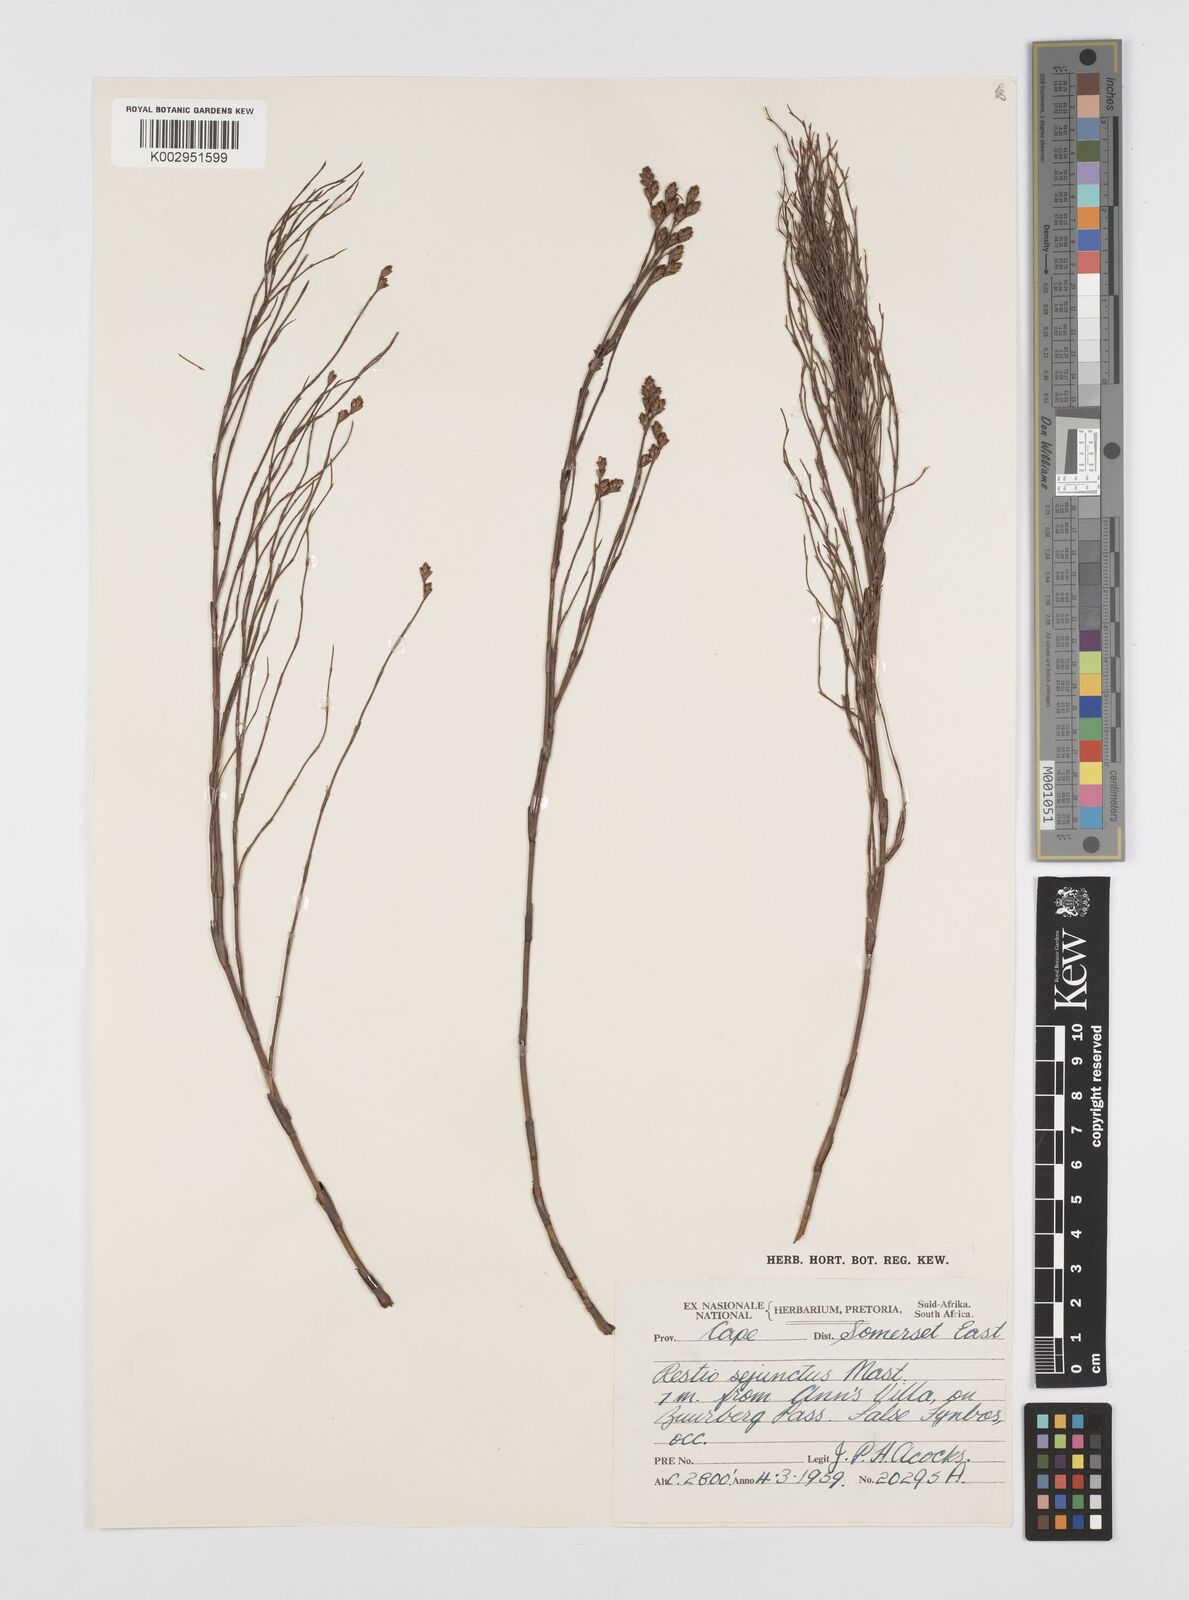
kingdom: Plantae
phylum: Tracheophyta
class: Liliopsida
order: Poales
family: Restionaceae
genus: Restio
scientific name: Restio sejunctus
